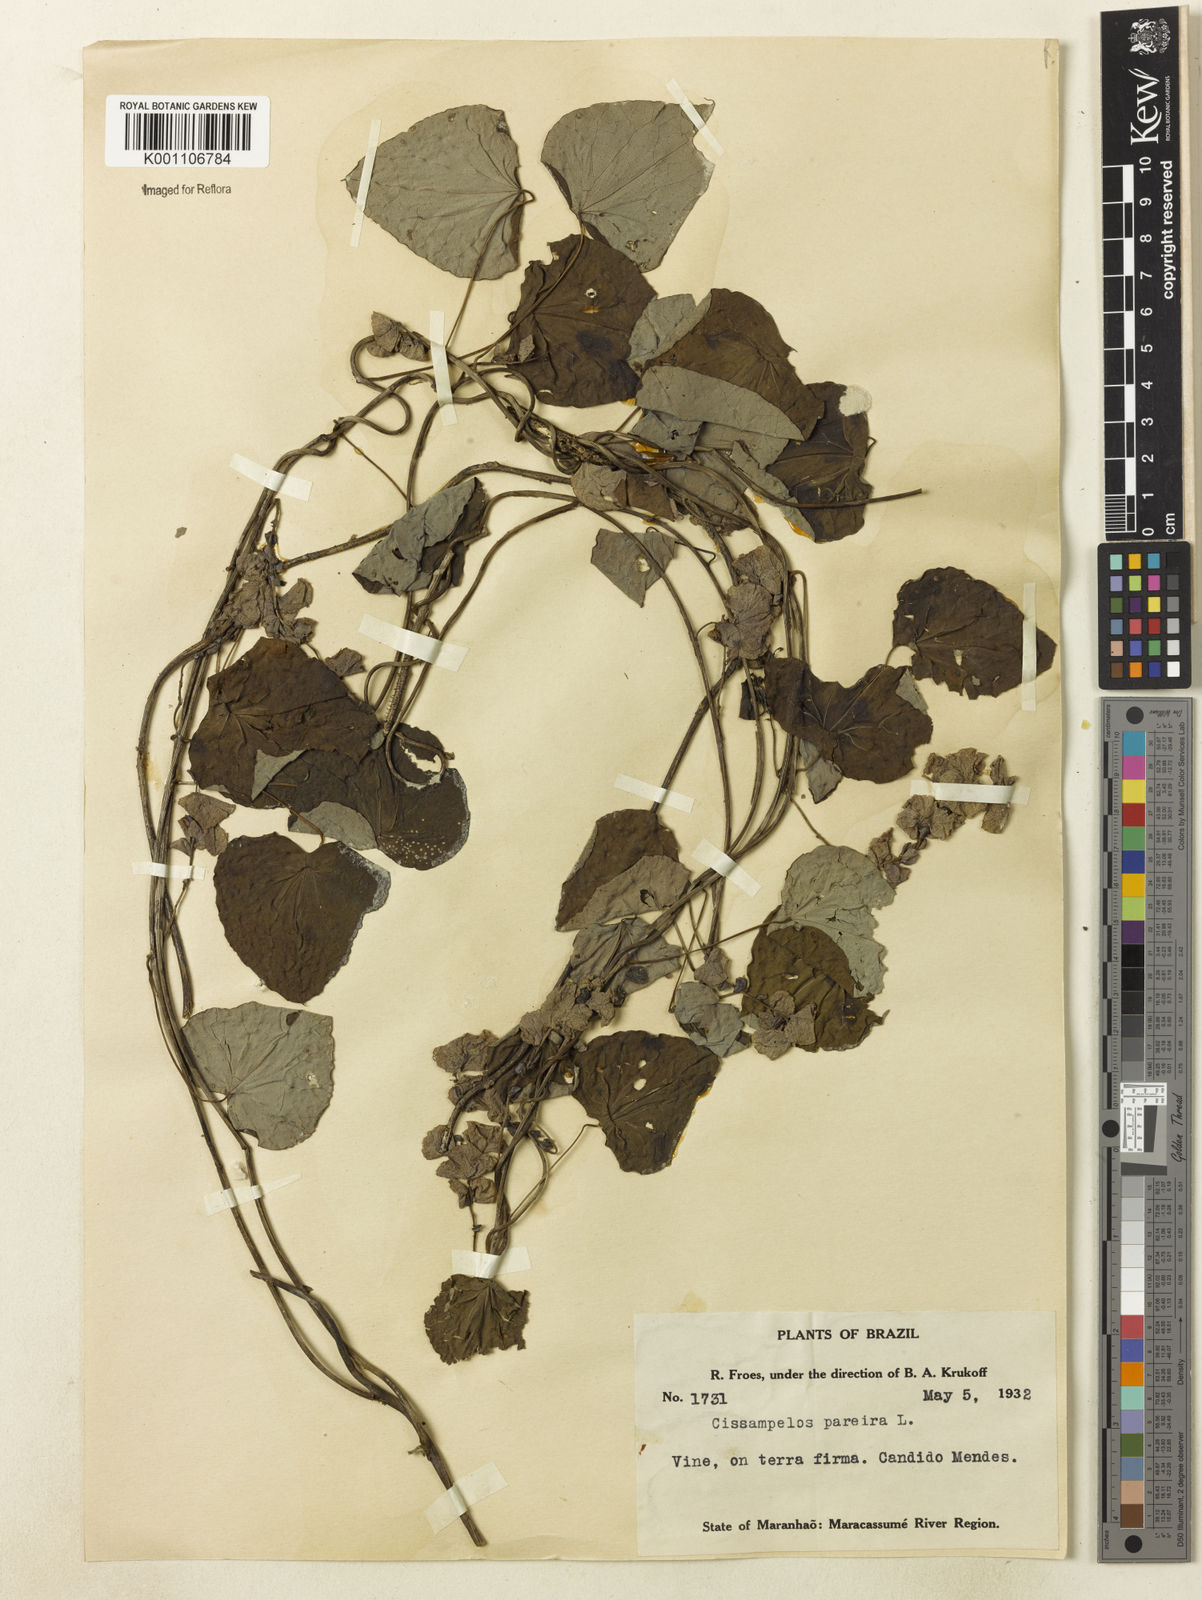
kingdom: Plantae
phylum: Tracheophyta
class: Magnoliopsida
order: Ranunculales
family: Menispermaceae
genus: Cissampelos
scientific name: Cissampelos pareira
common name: Velvetleaf
